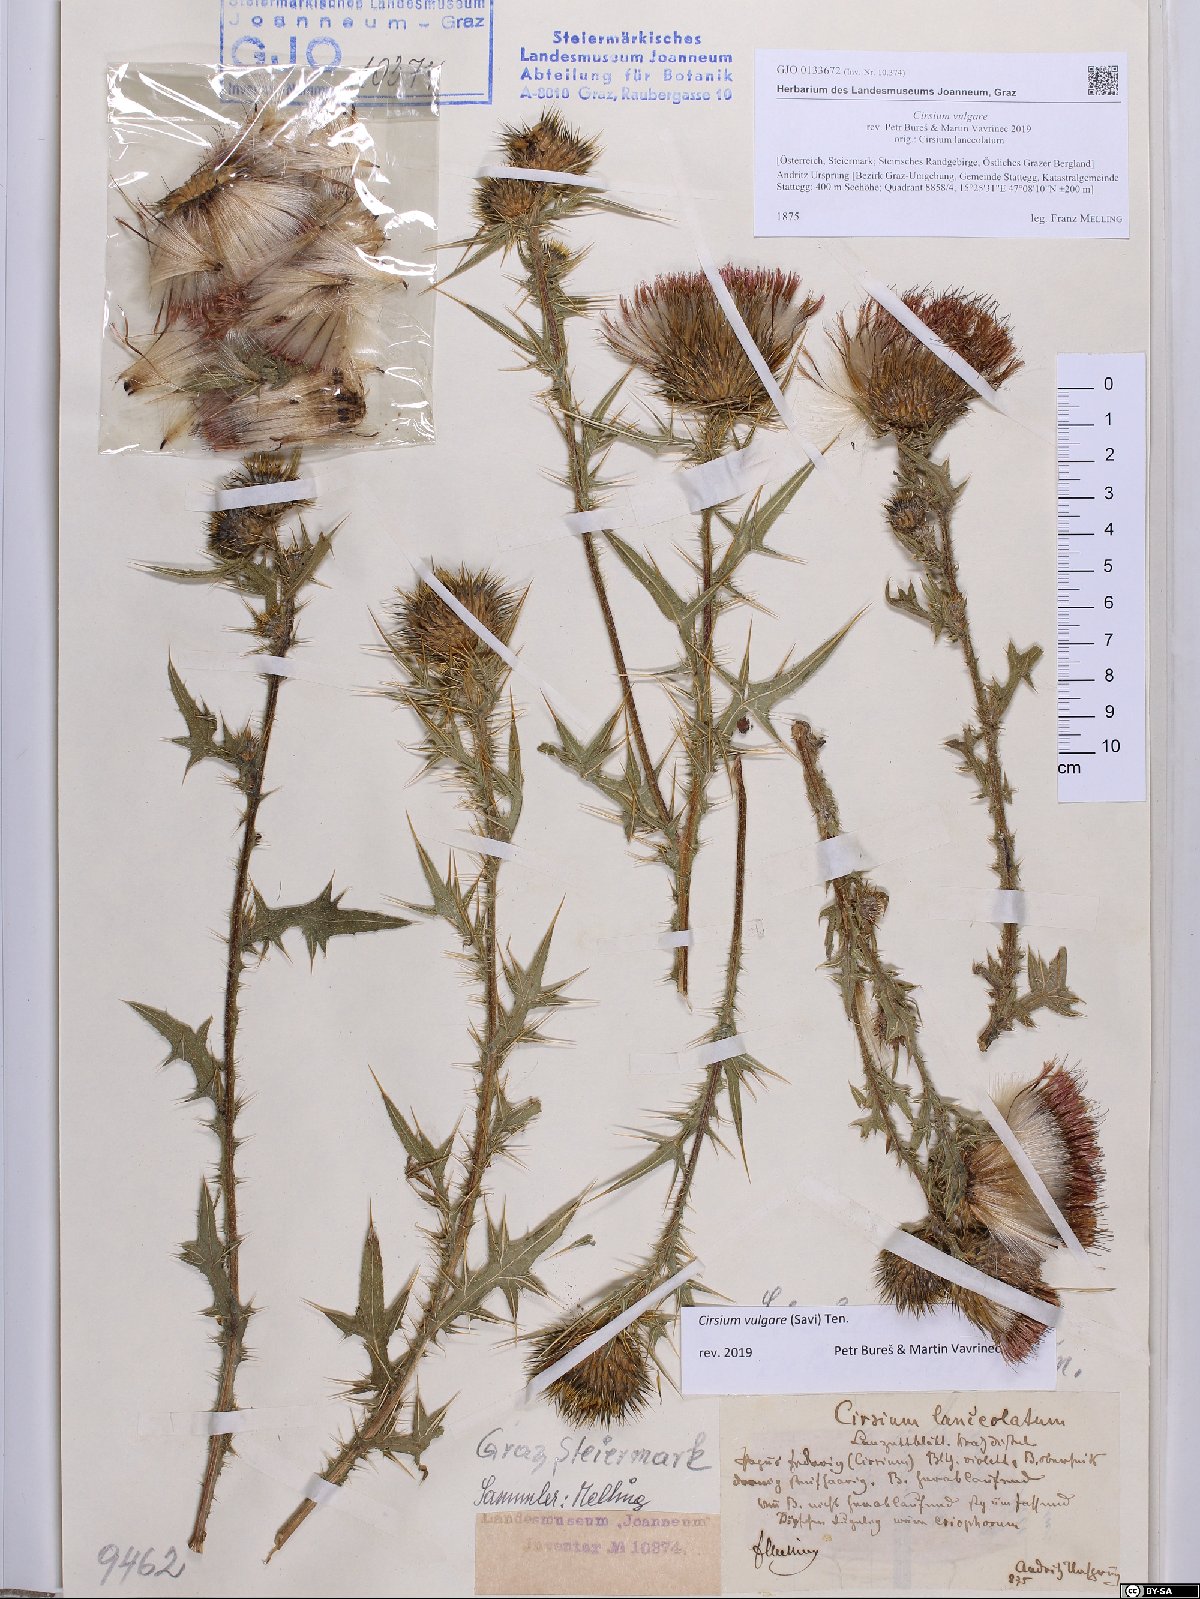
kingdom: Plantae
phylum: Tracheophyta
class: Magnoliopsida
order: Asterales
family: Asteraceae
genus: Cirsium
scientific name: Cirsium vulgare
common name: Bull thistle
